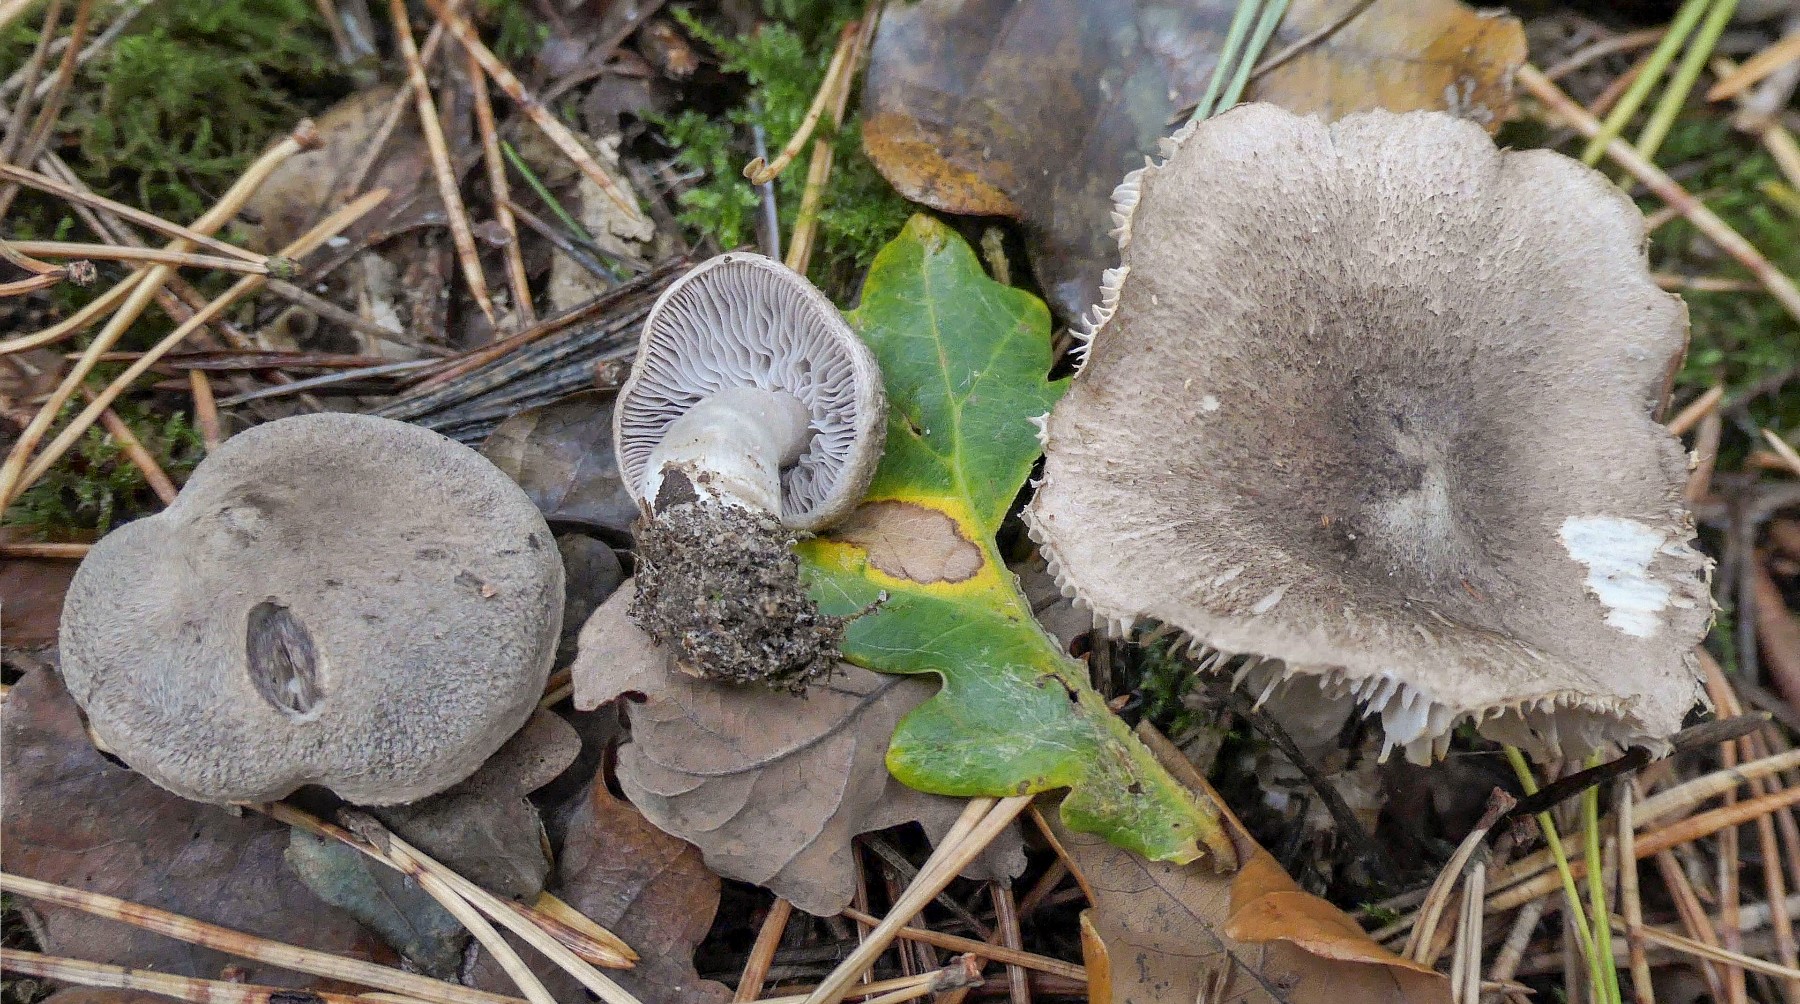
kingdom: Fungi
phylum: Basidiomycota
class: Agaricomycetes
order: Agaricales
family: Tricholomataceae
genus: Tricholoma
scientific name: Tricholoma terreum
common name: jordfarvet ridderhat
